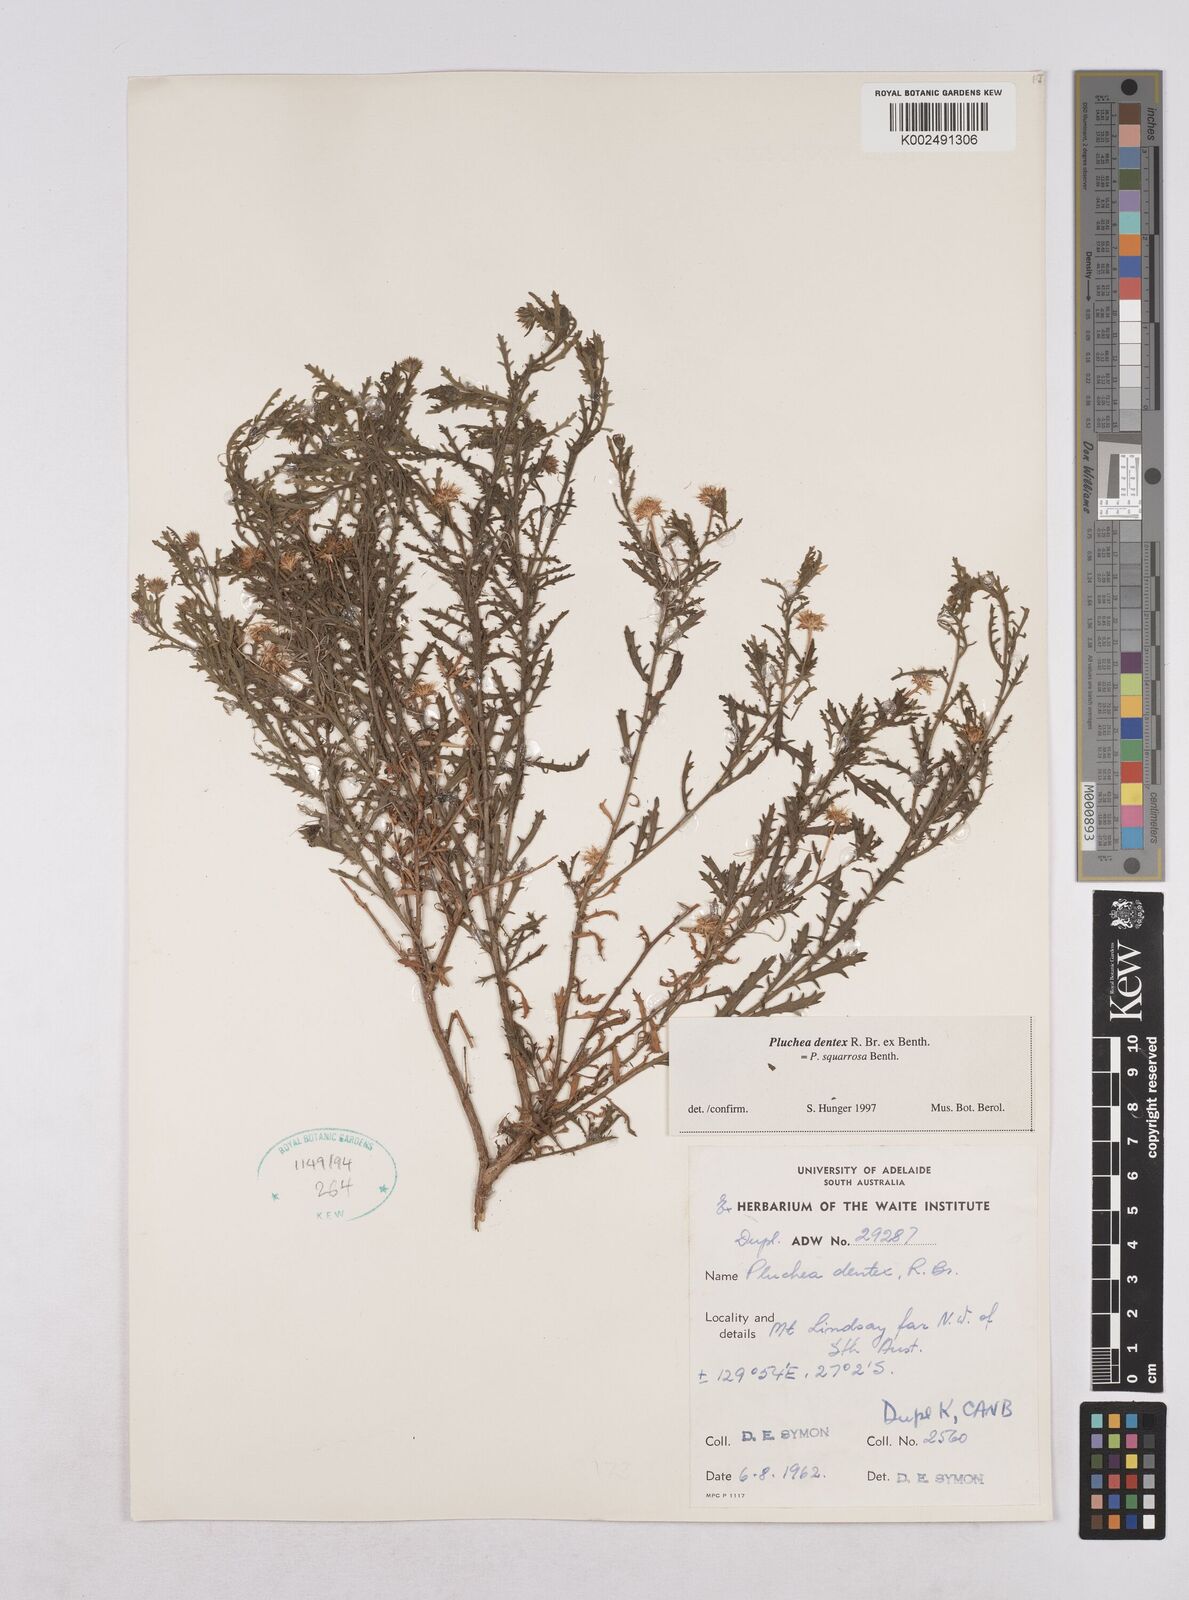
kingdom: Plantae
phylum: Tracheophyta
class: Magnoliopsida
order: Asterales
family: Asteraceae
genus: Pluchea
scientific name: Pluchea dentex
